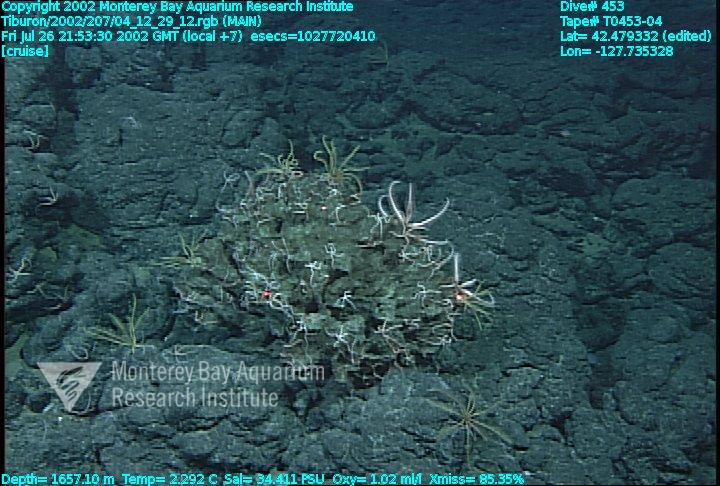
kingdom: Animalia
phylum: Porifera
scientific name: Porifera
